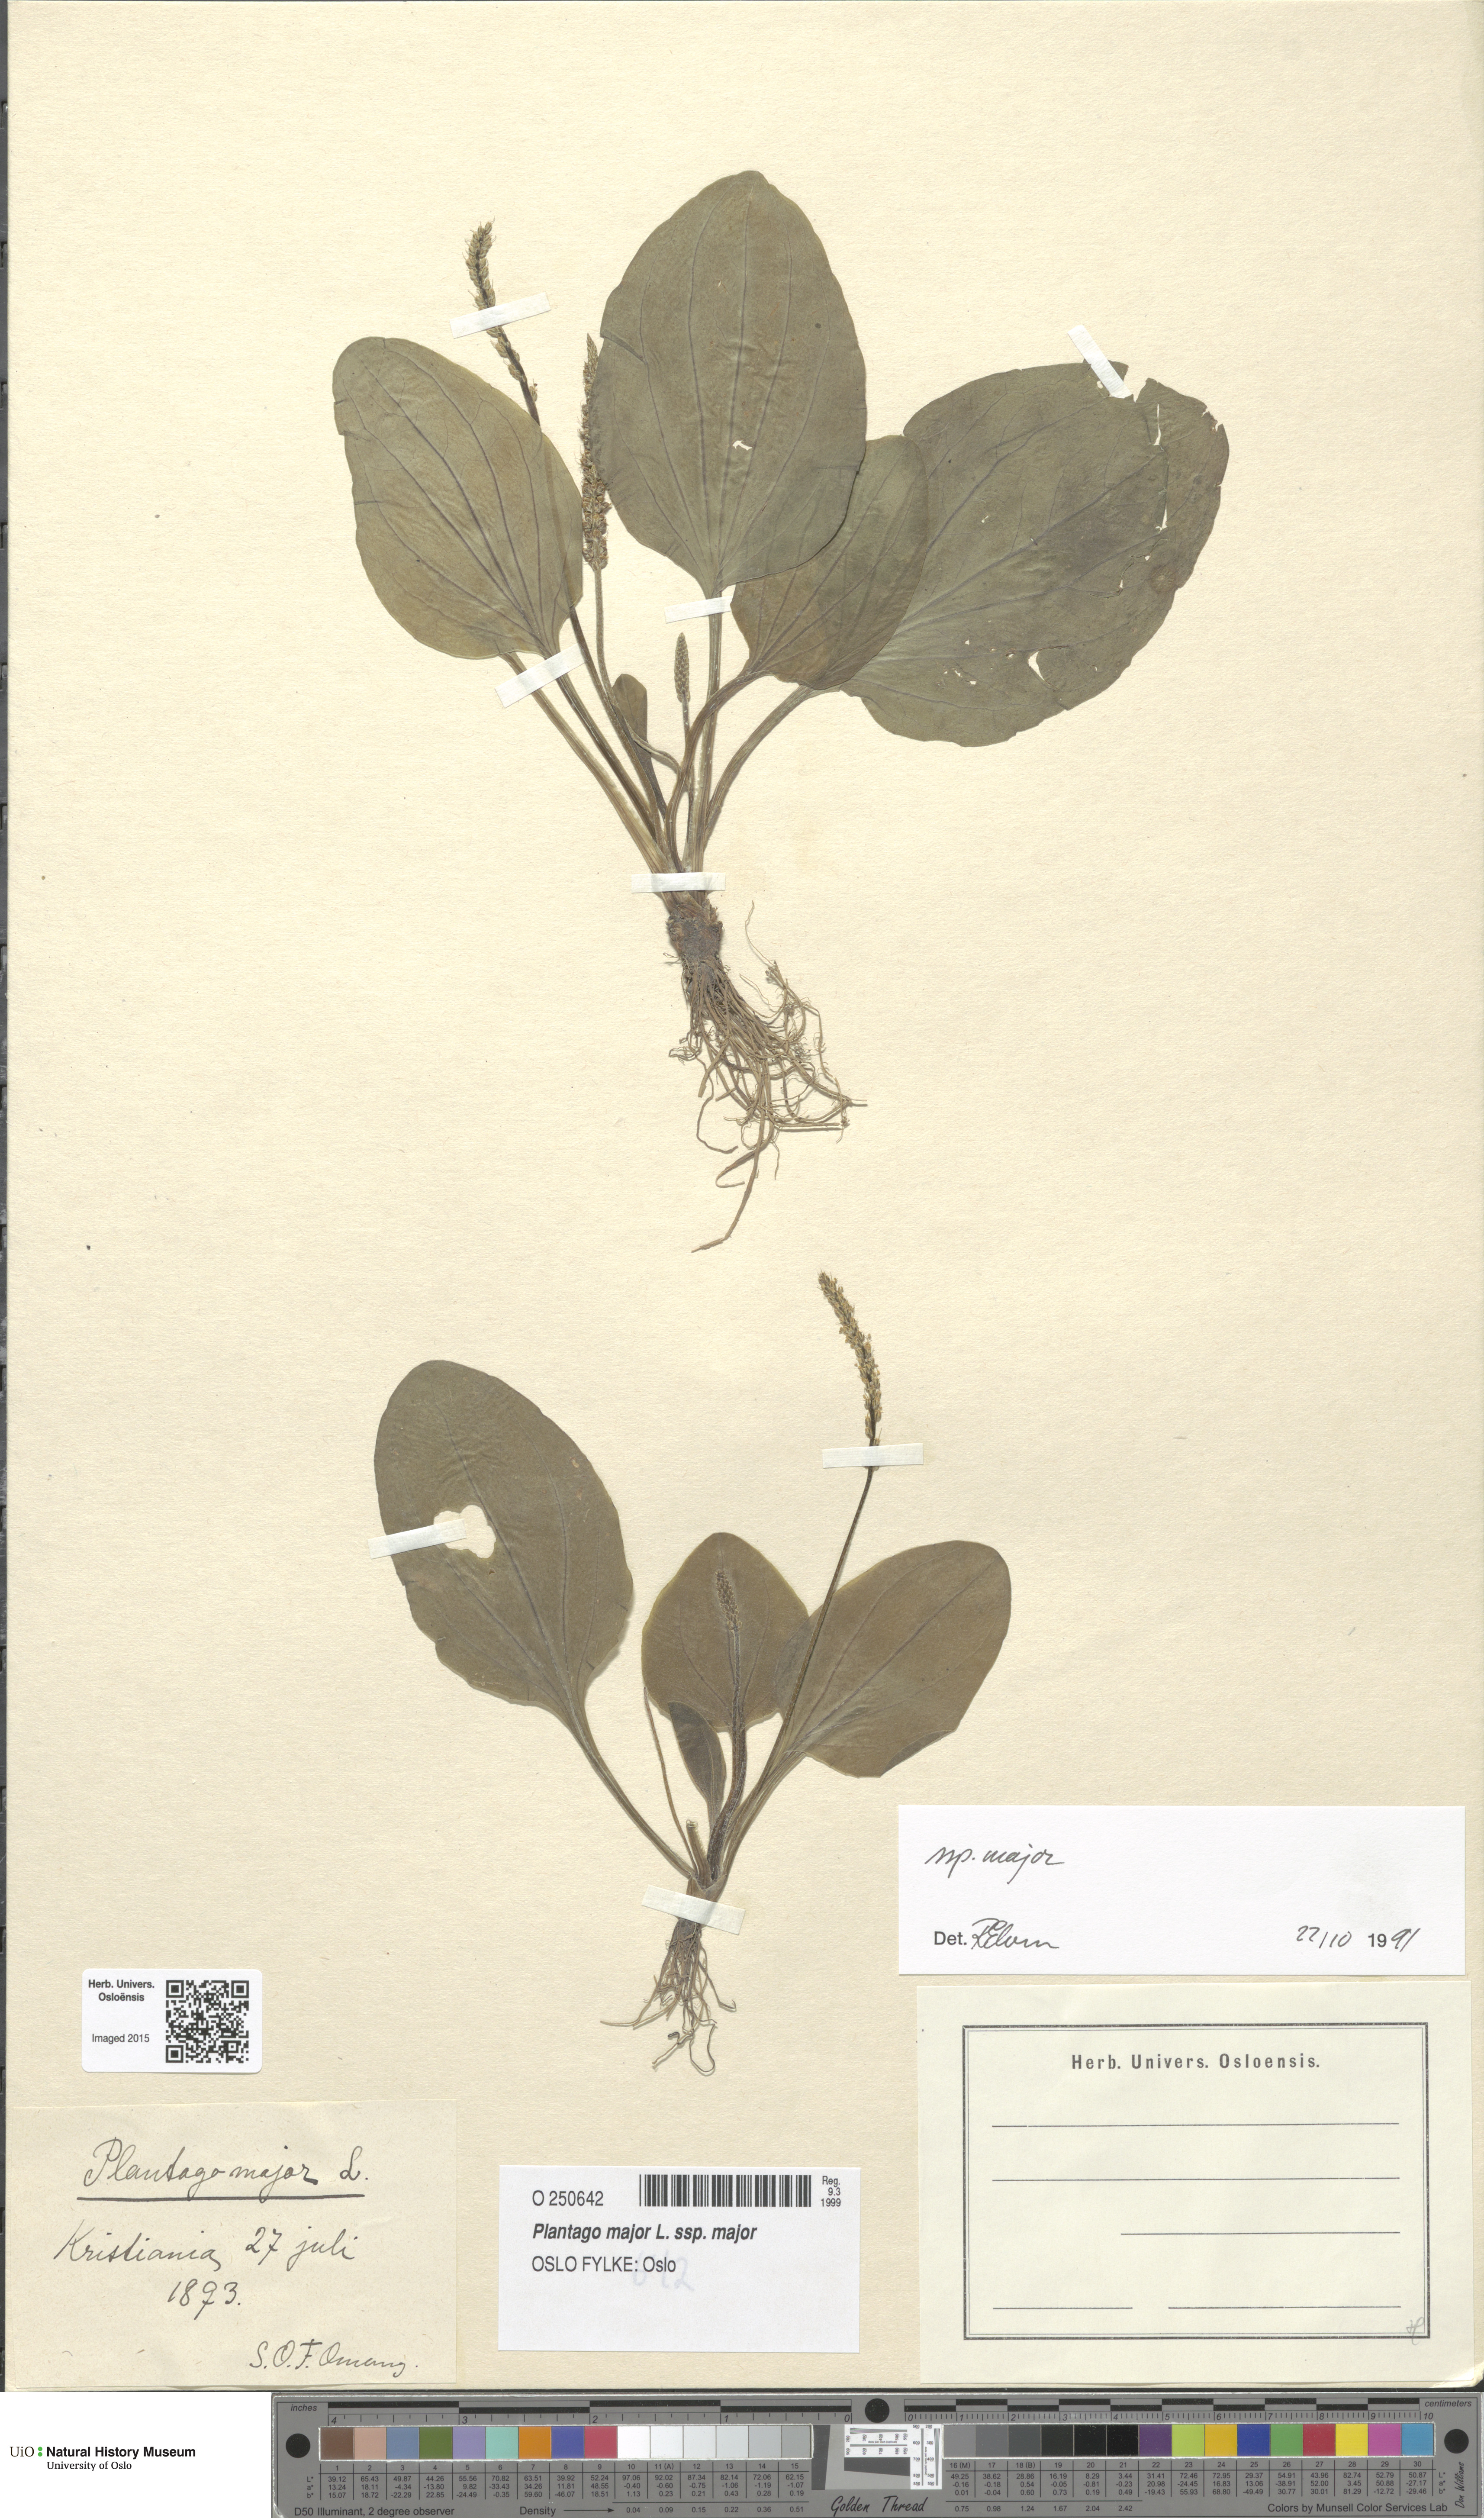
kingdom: Plantae
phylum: Tracheophyta
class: Magnoliopsida
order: Lamiales
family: Plantaginaceae
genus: Plantago
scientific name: Plantago major
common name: Common plantain
